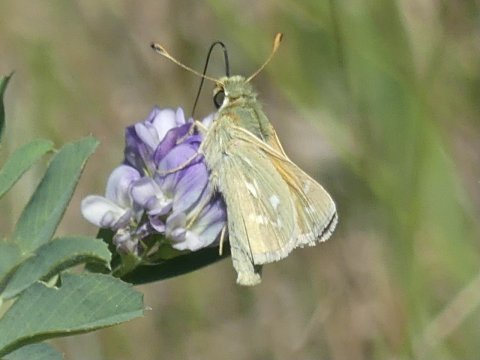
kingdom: Animalia
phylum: Arthropoda
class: Insecta
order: Lepidoptera
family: Hesperiidae
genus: Hesperia
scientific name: Hesperia comma
